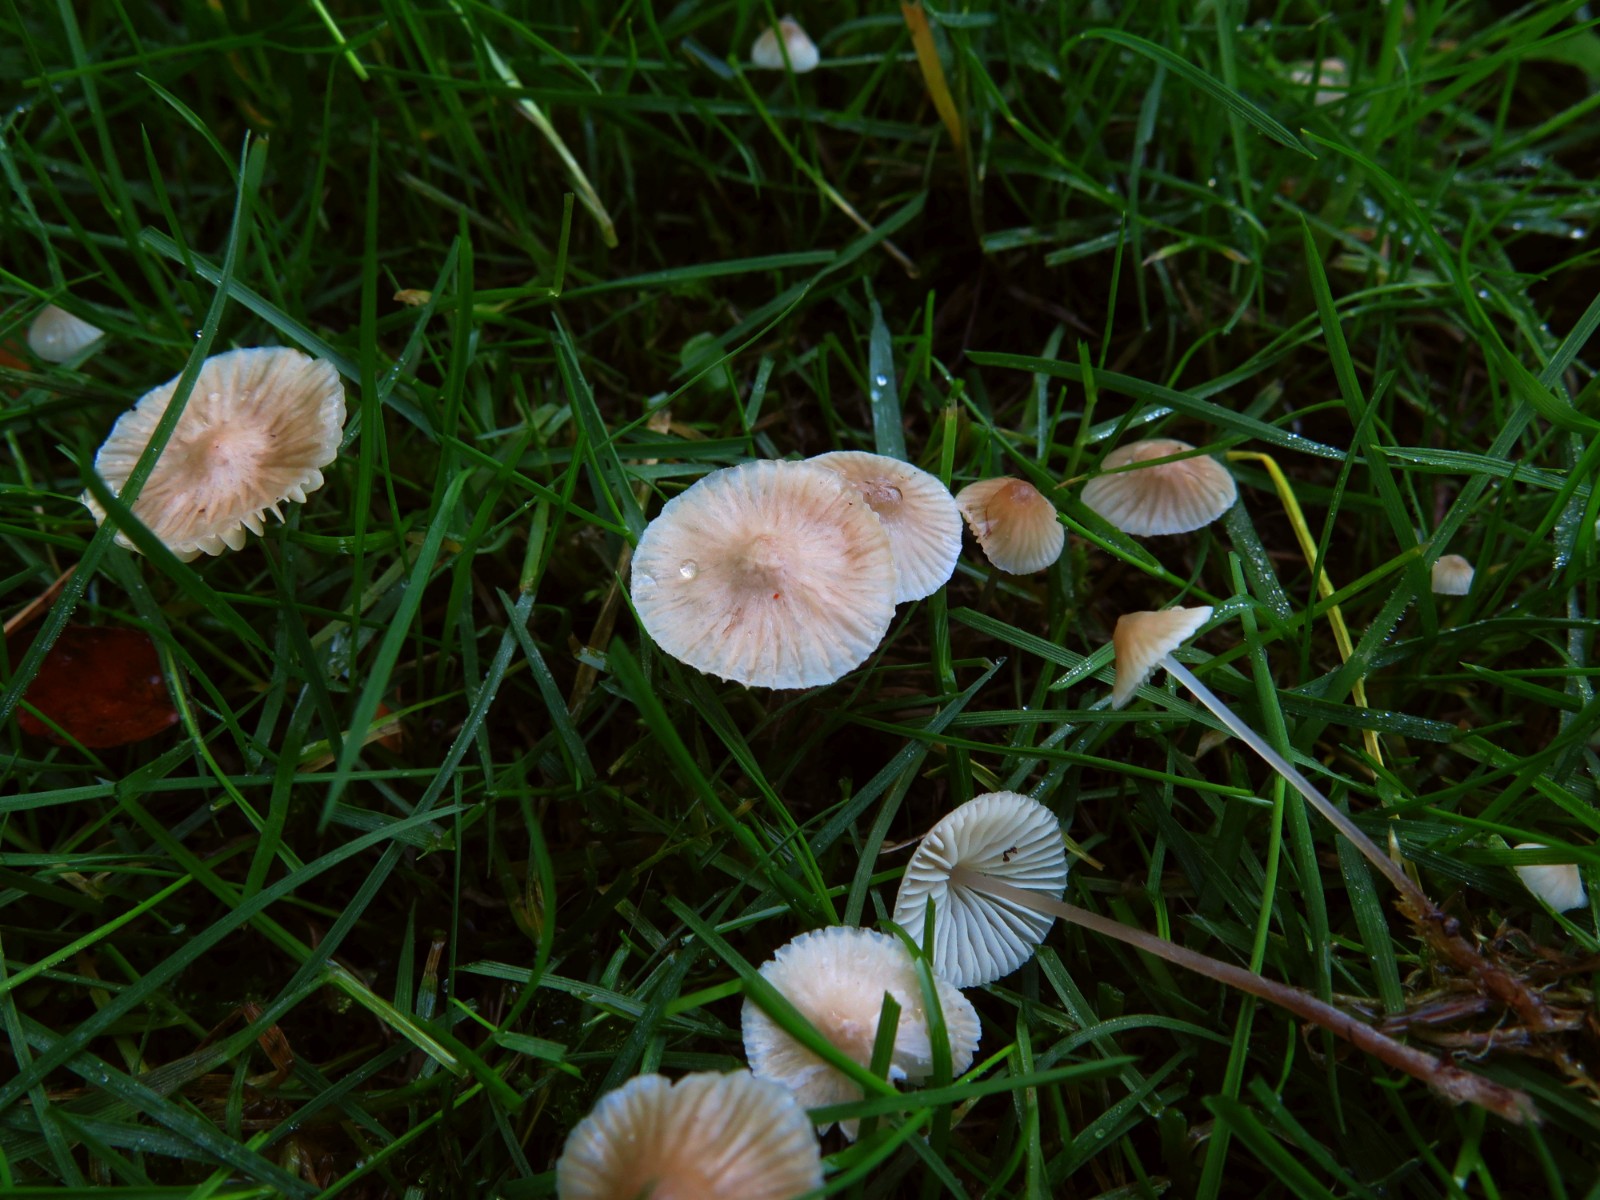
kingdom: Fungi
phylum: Basidiomycota
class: Agaricomycetes
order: Agaricales
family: Mycenaceae
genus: Mycena
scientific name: Mycena
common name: huesvamp
